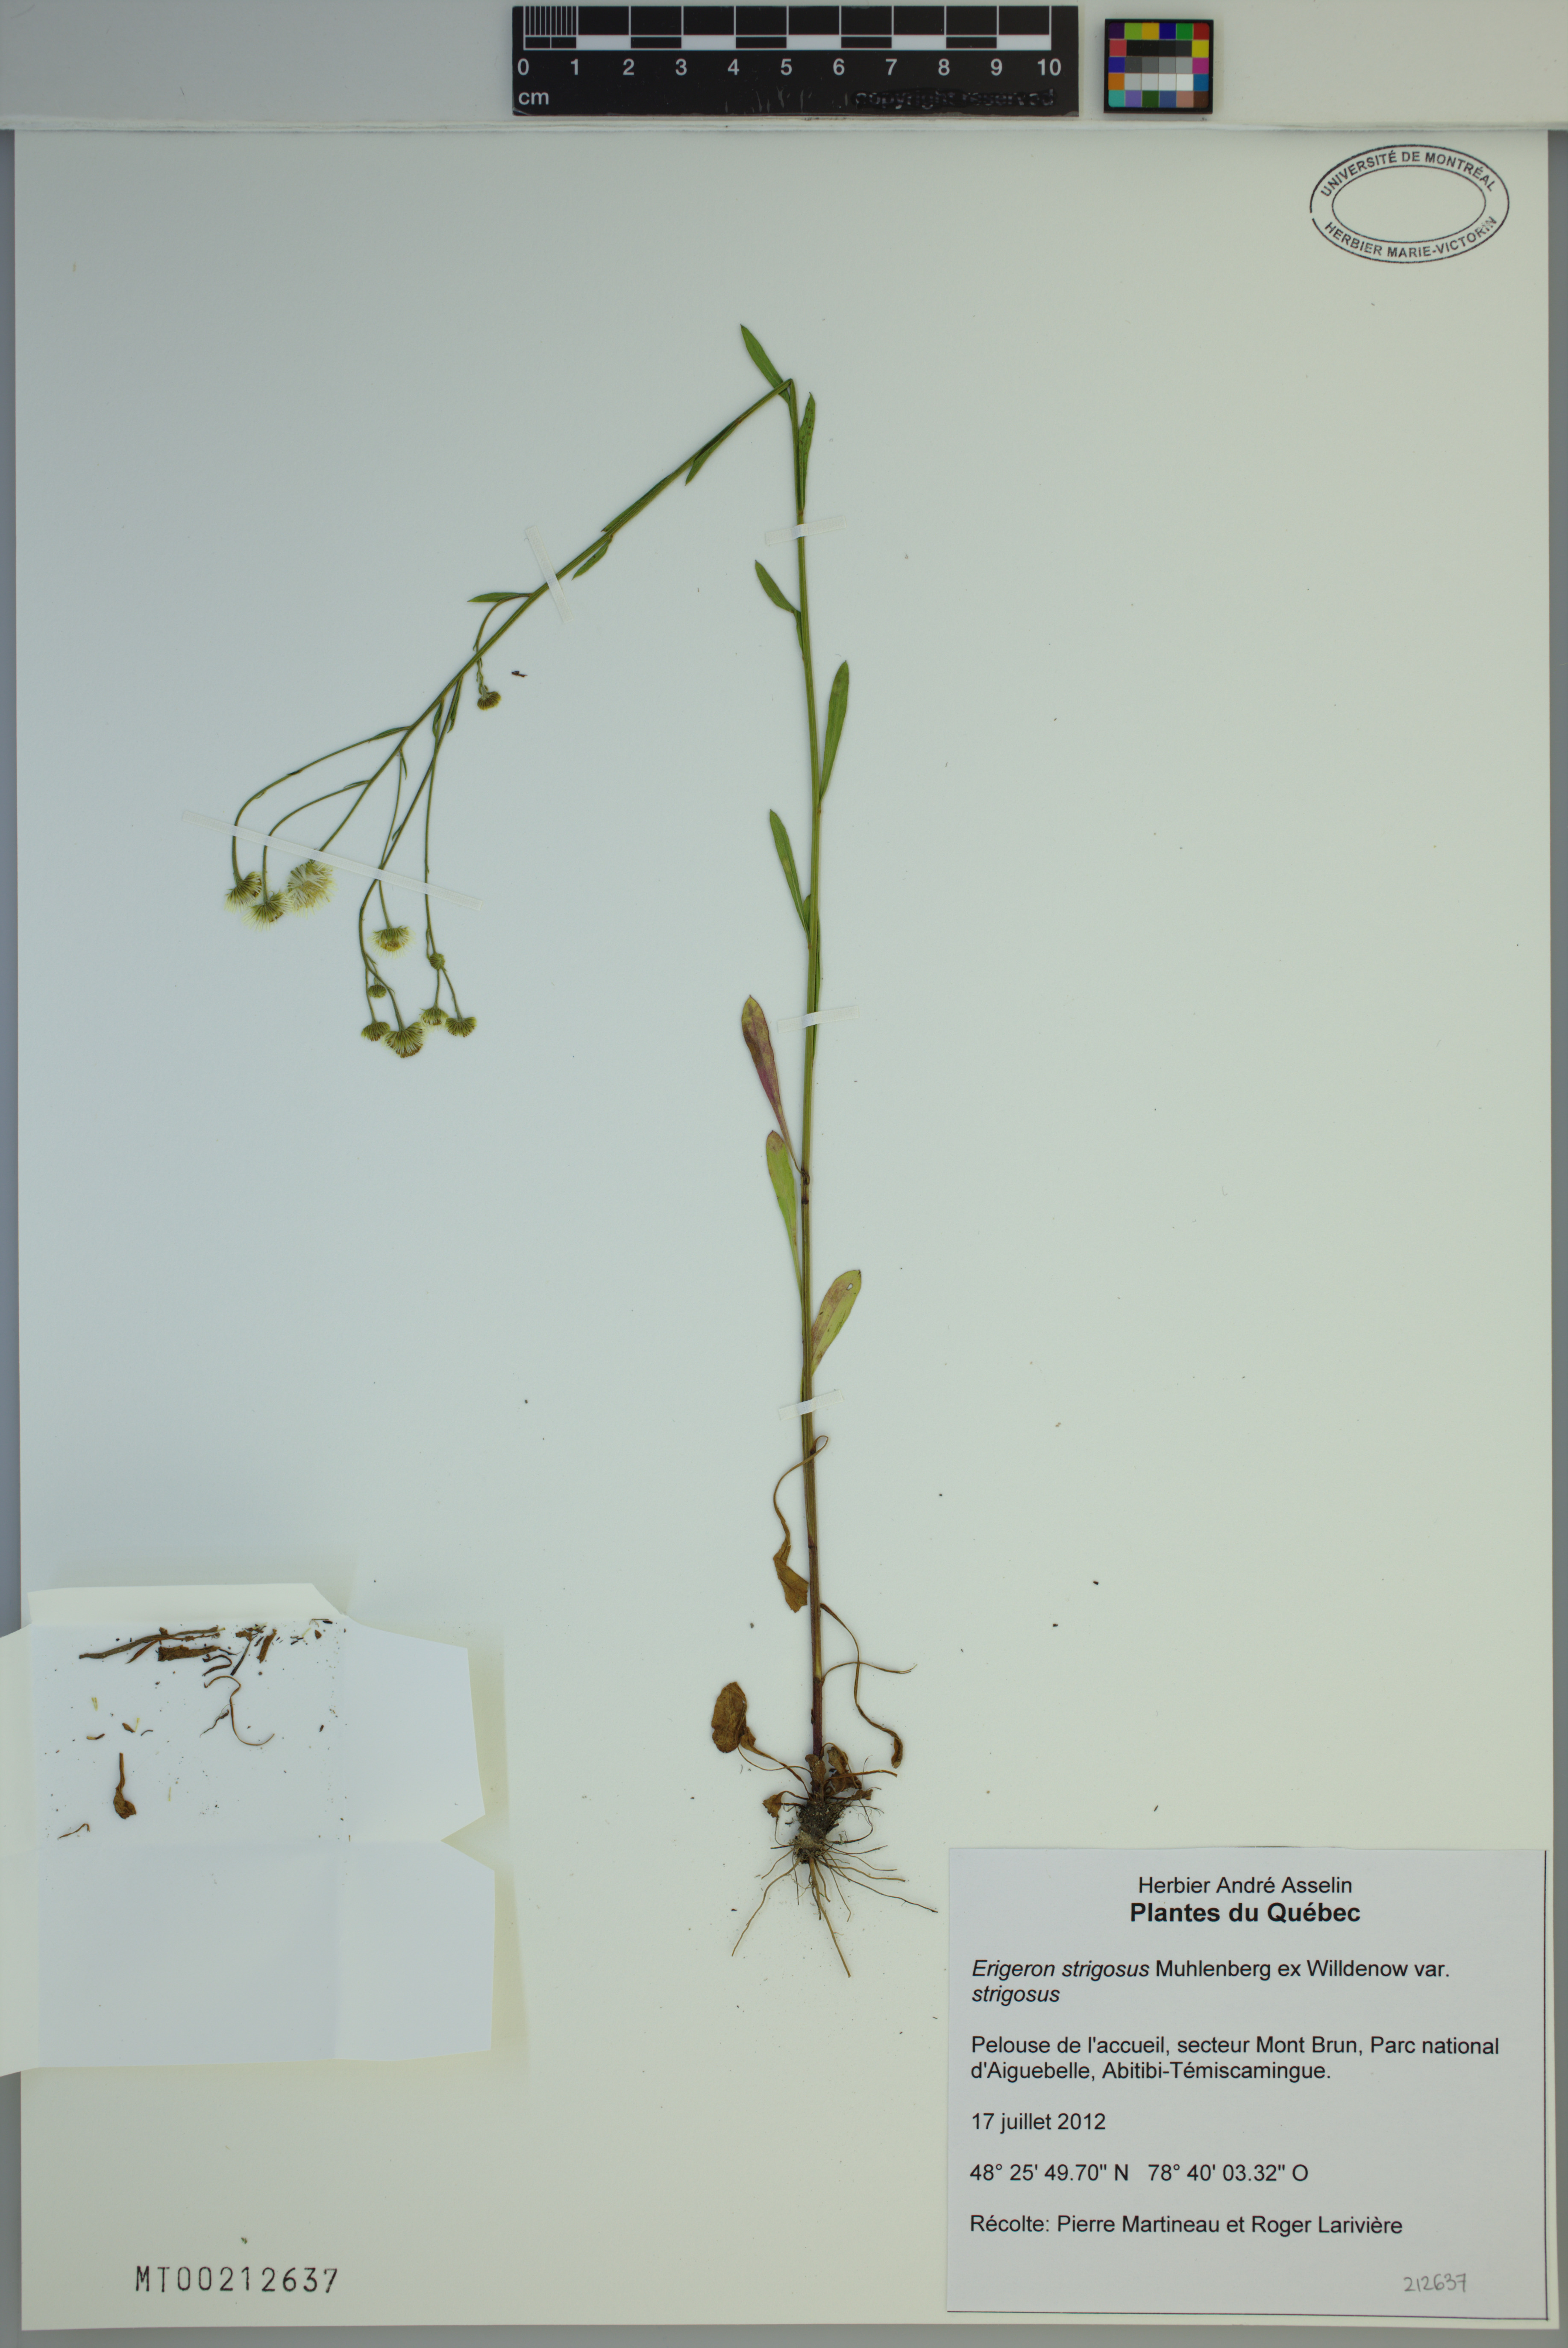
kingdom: Plantae
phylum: Tracheophyta
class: Magnoliopsida
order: Asterales
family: Asteraceae
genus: Erigeron
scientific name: Erigeron strigosus
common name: Common eastern fleabane
